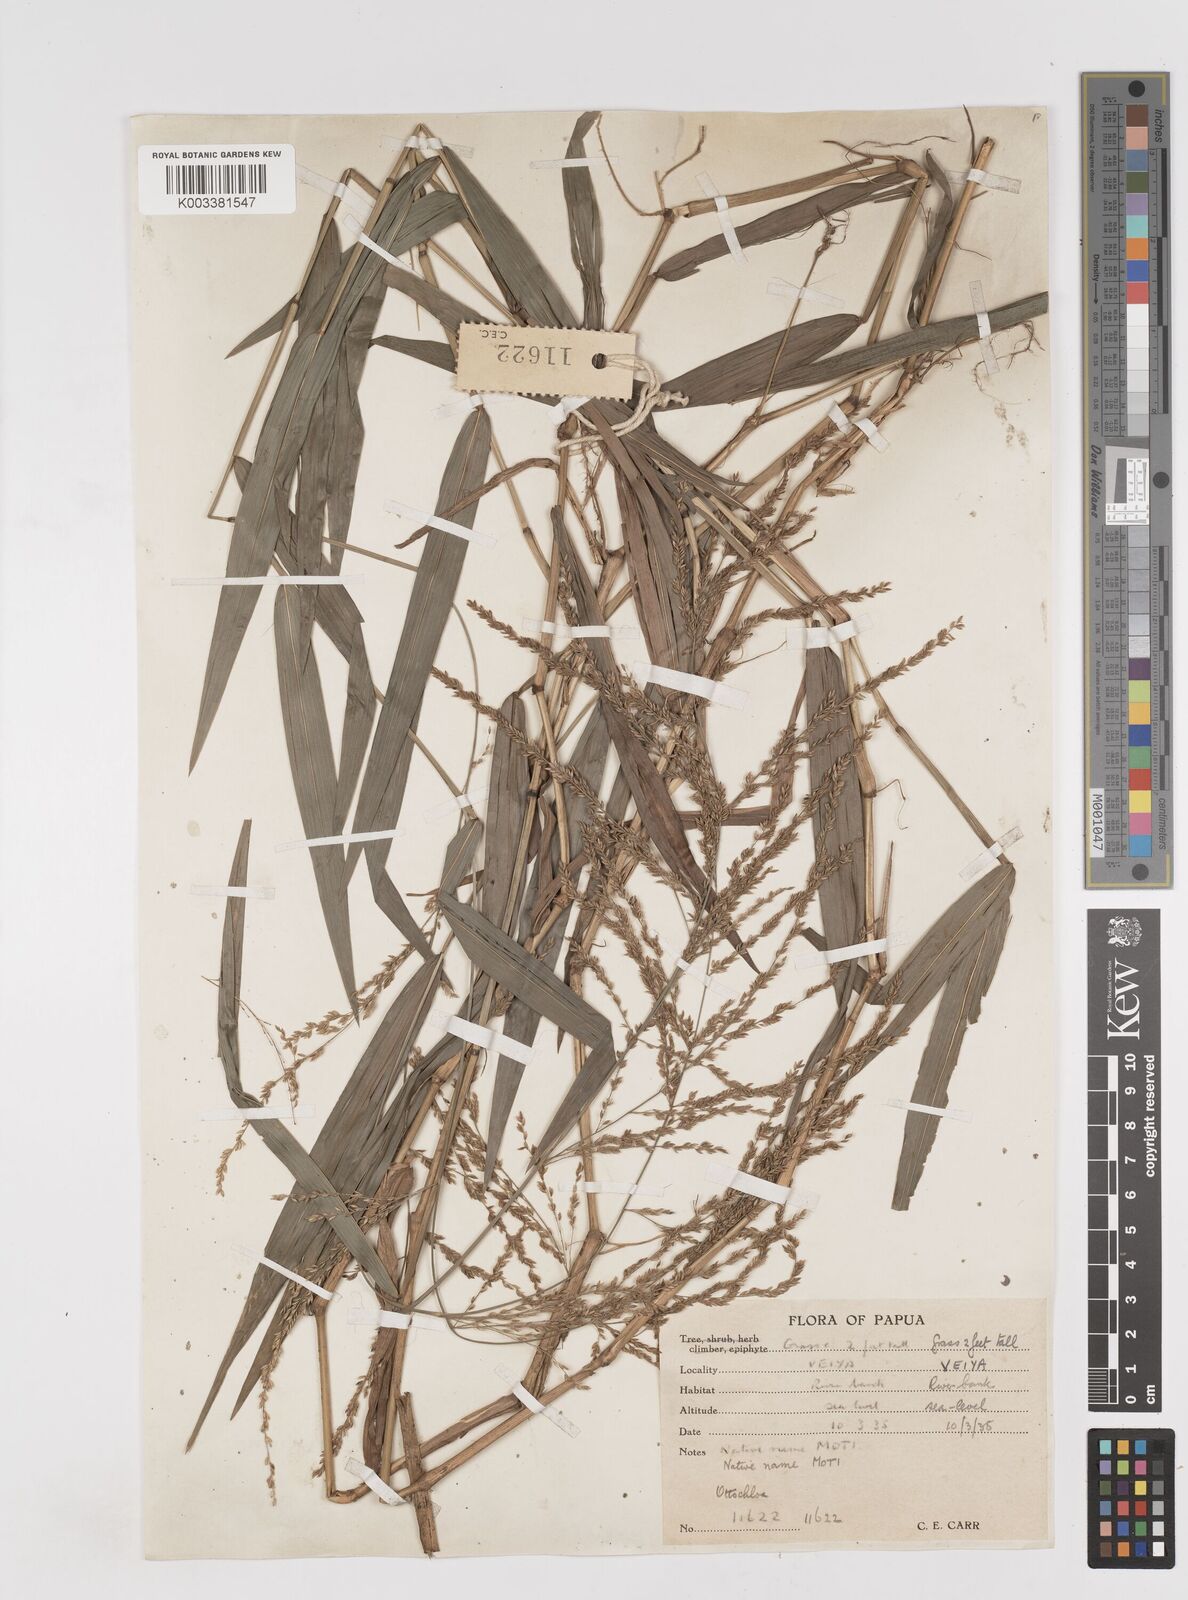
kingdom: Plantae
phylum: Tracheophyta
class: Liliopsida
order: Poales
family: Poaceae
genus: Ottochloa
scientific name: Ottochloa nodosa
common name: Slender-panic grass
